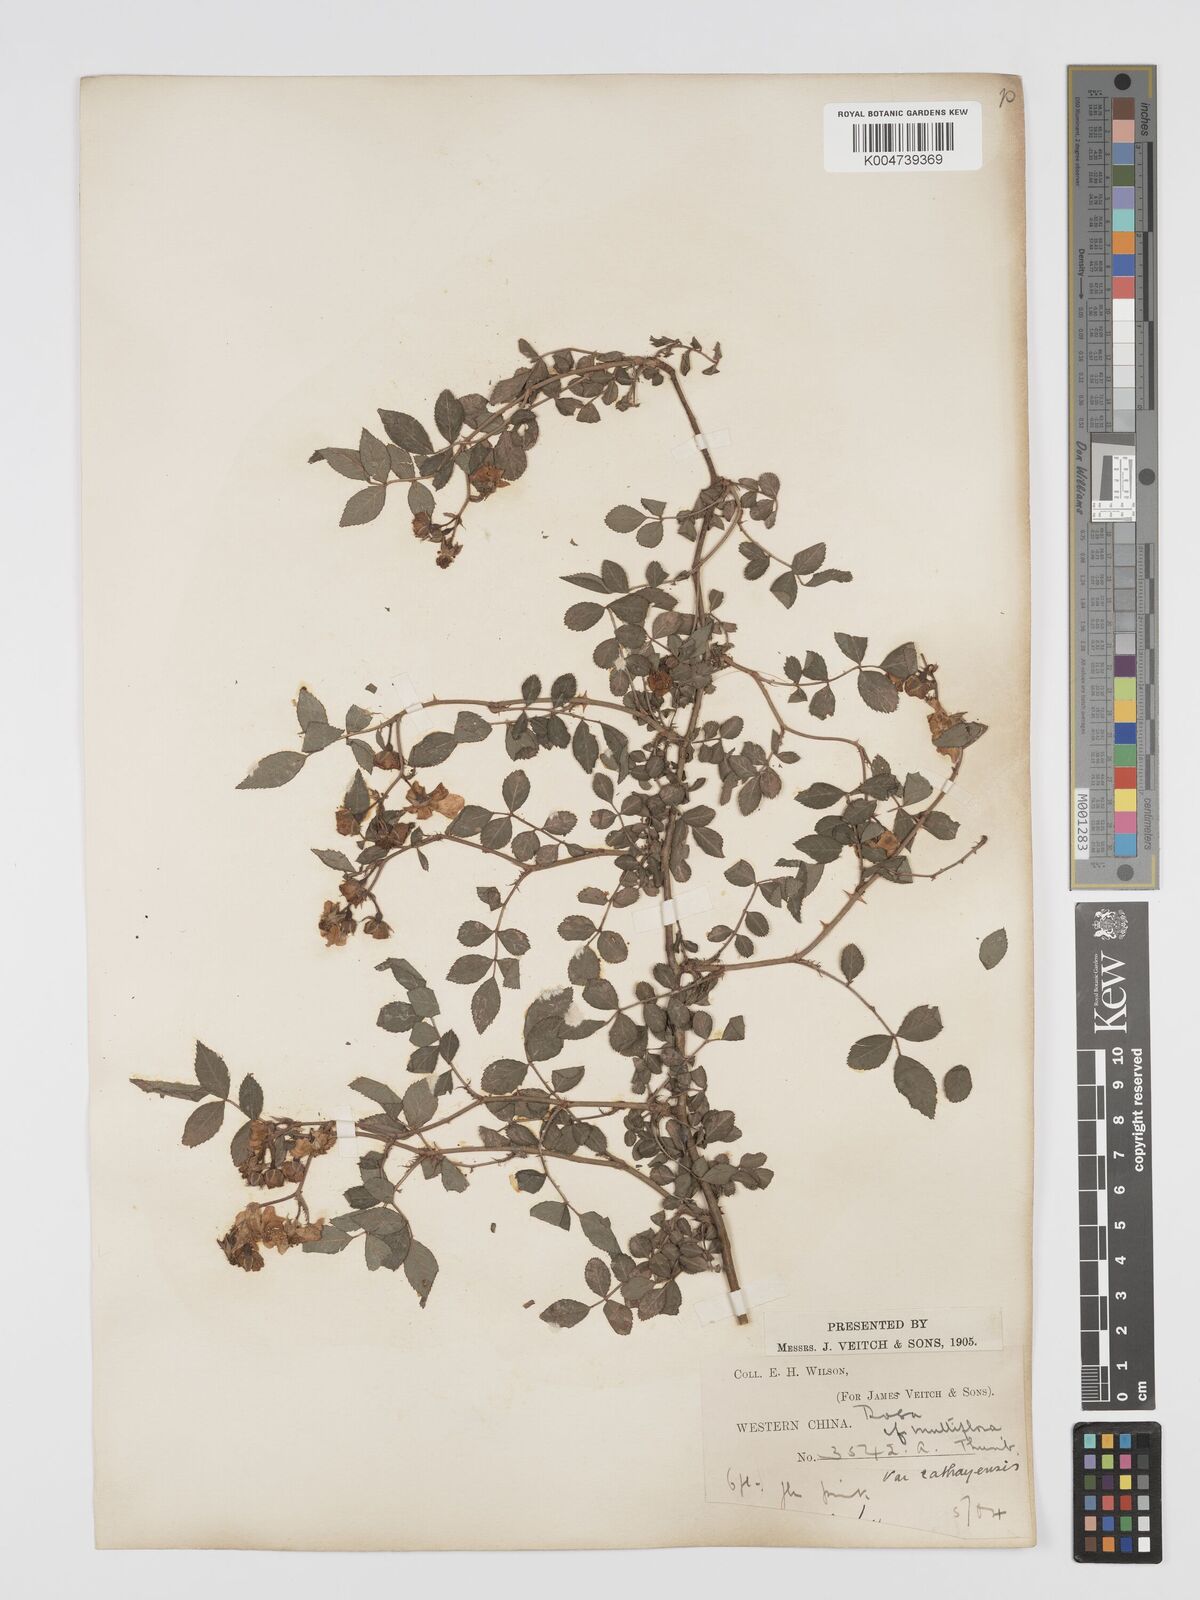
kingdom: Plantae
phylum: Tracheophyta
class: Magnoliopsida
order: Rosales
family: Rosaceae
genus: Rosa
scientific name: Rosa
